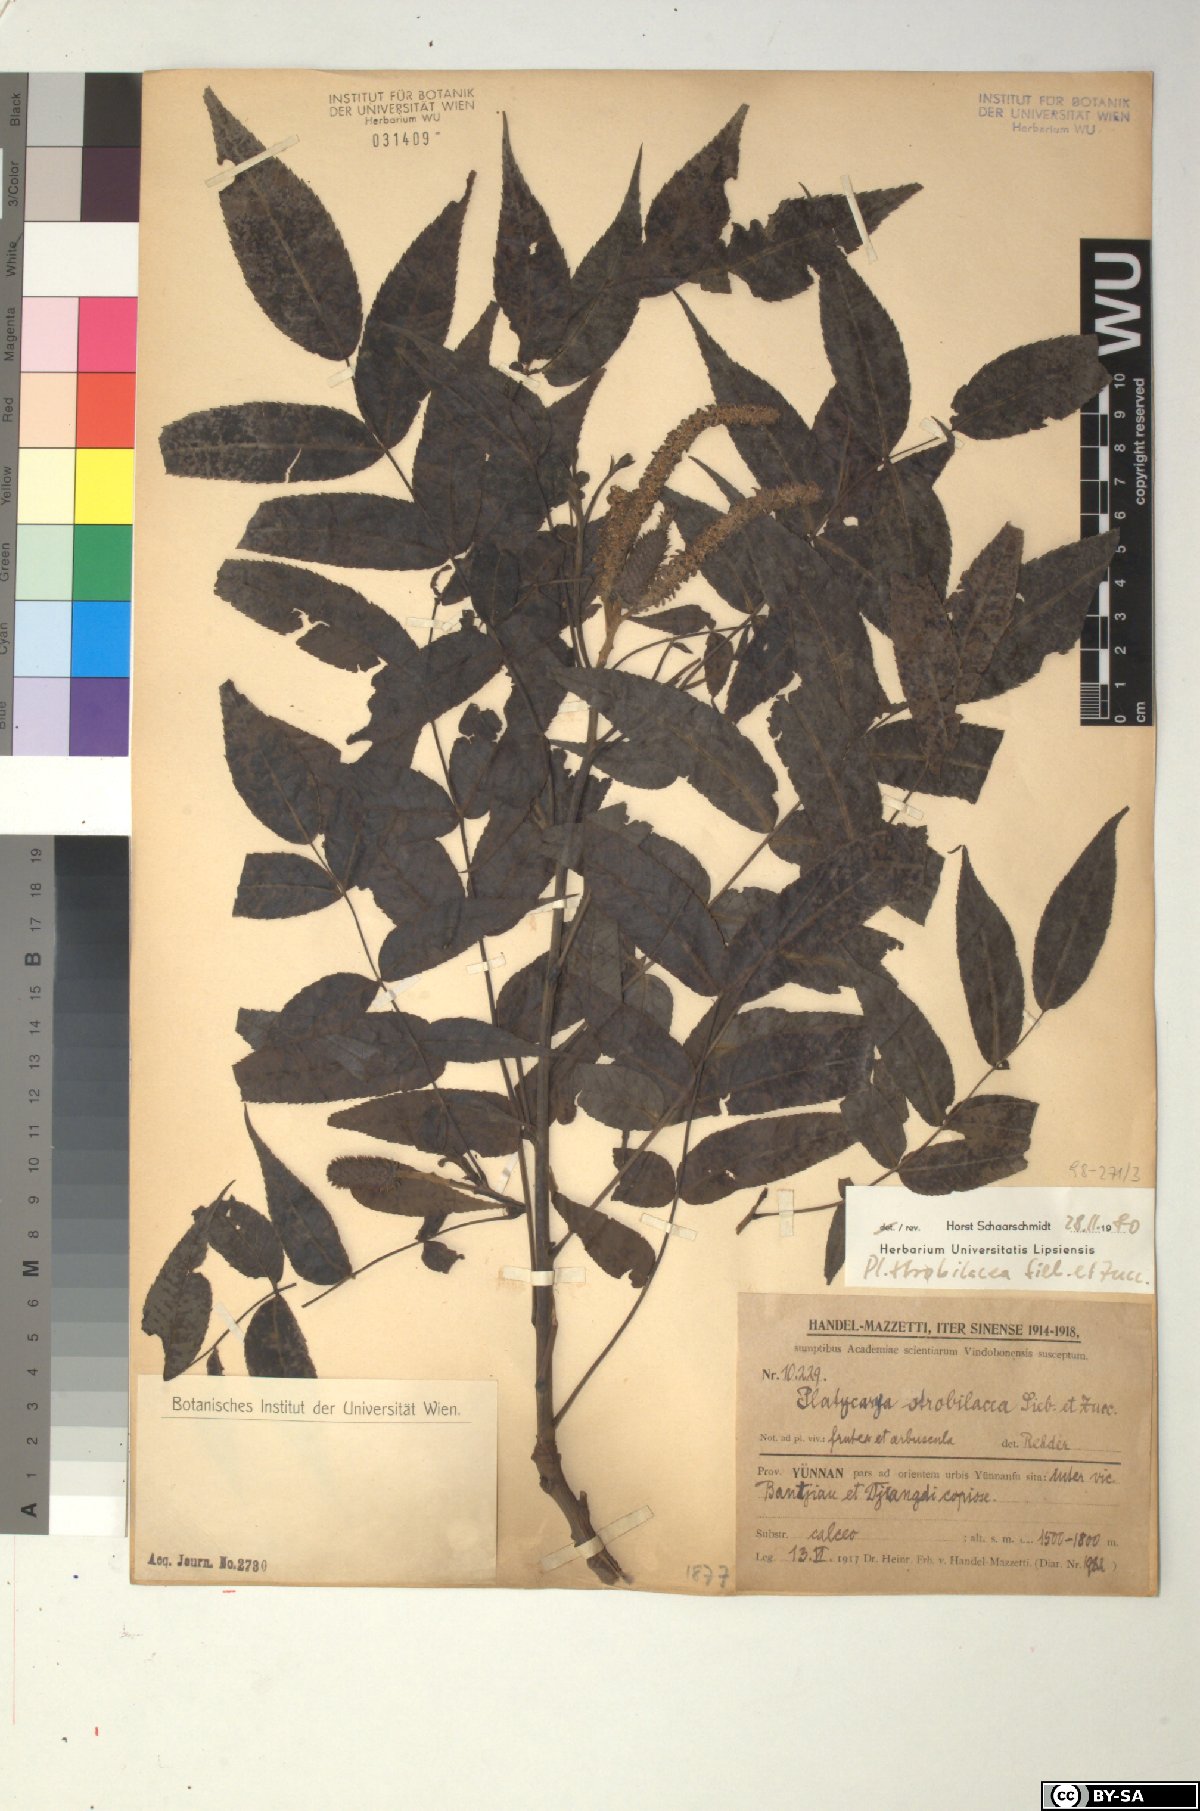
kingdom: Plantae
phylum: Tracheophyta
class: Magnoliopsida
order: Fagales
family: Juglandaceae
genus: Platycarya
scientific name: Platycarya strobilacea
